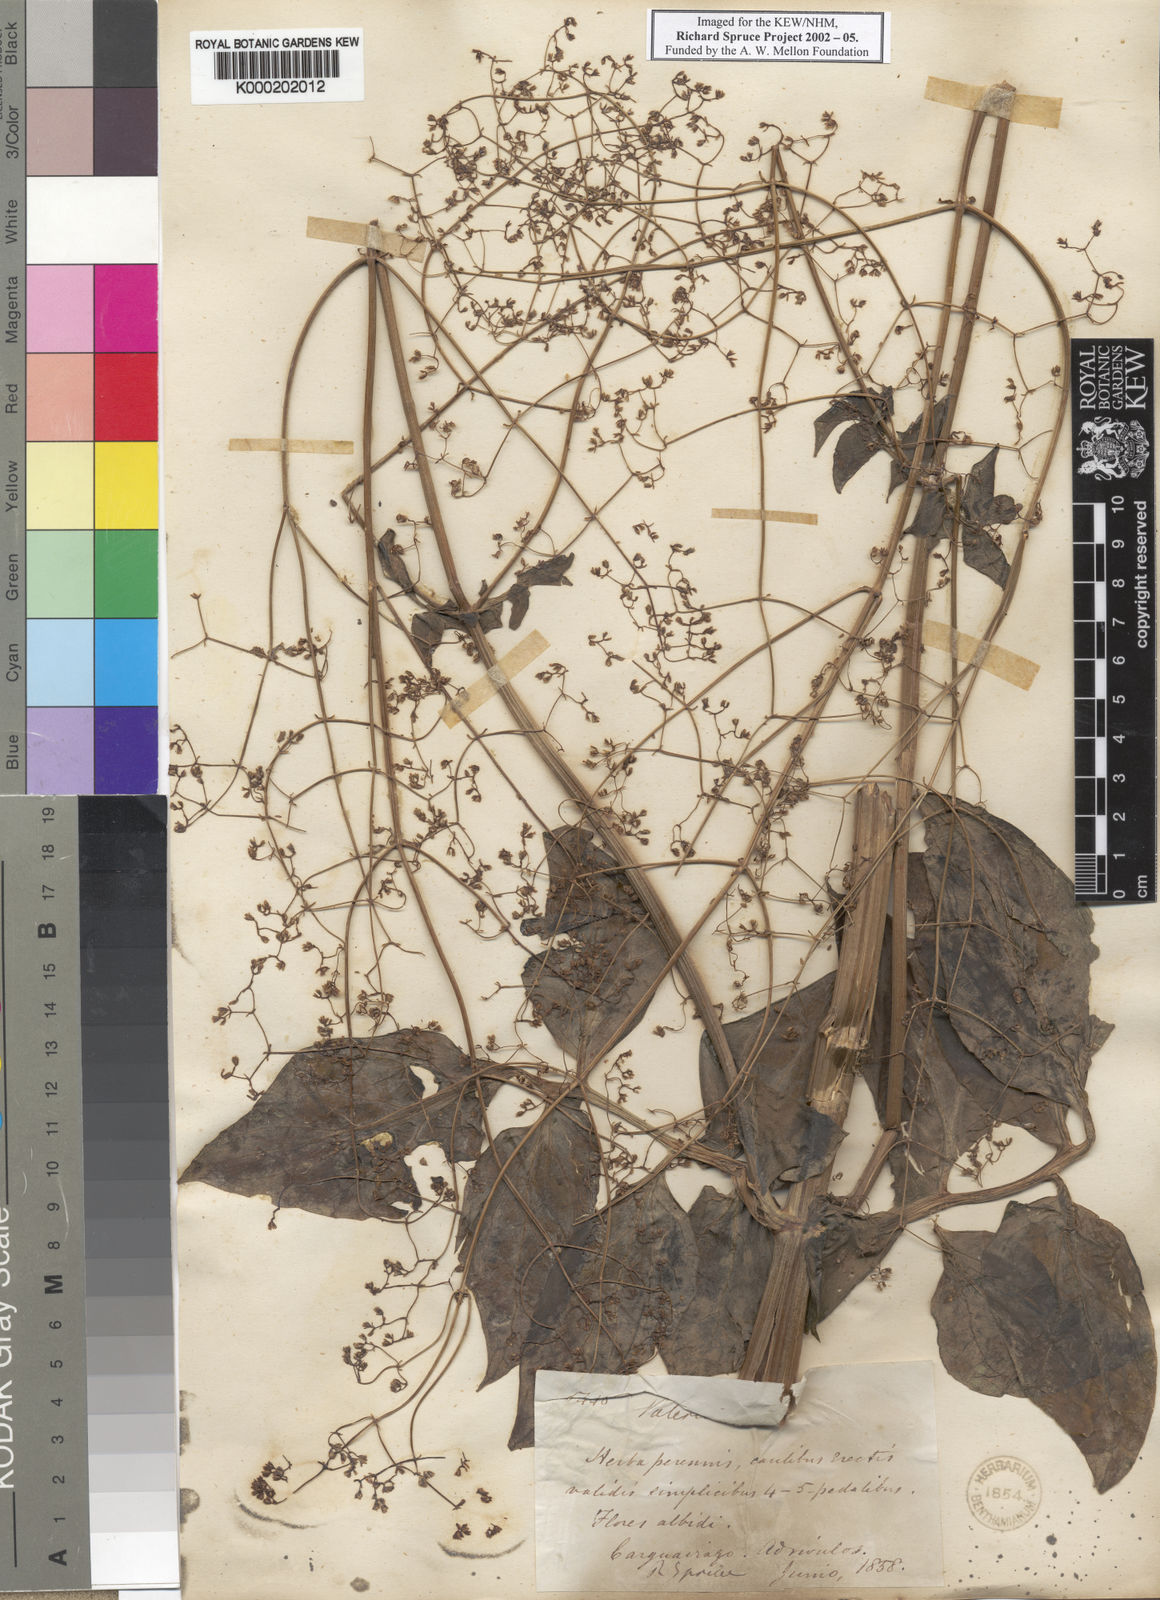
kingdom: Plantae
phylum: Tracheophyta
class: Magnoliopsida
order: Dipsacales
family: Caprifoliaceae
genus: Valeriana
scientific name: Valeriana
